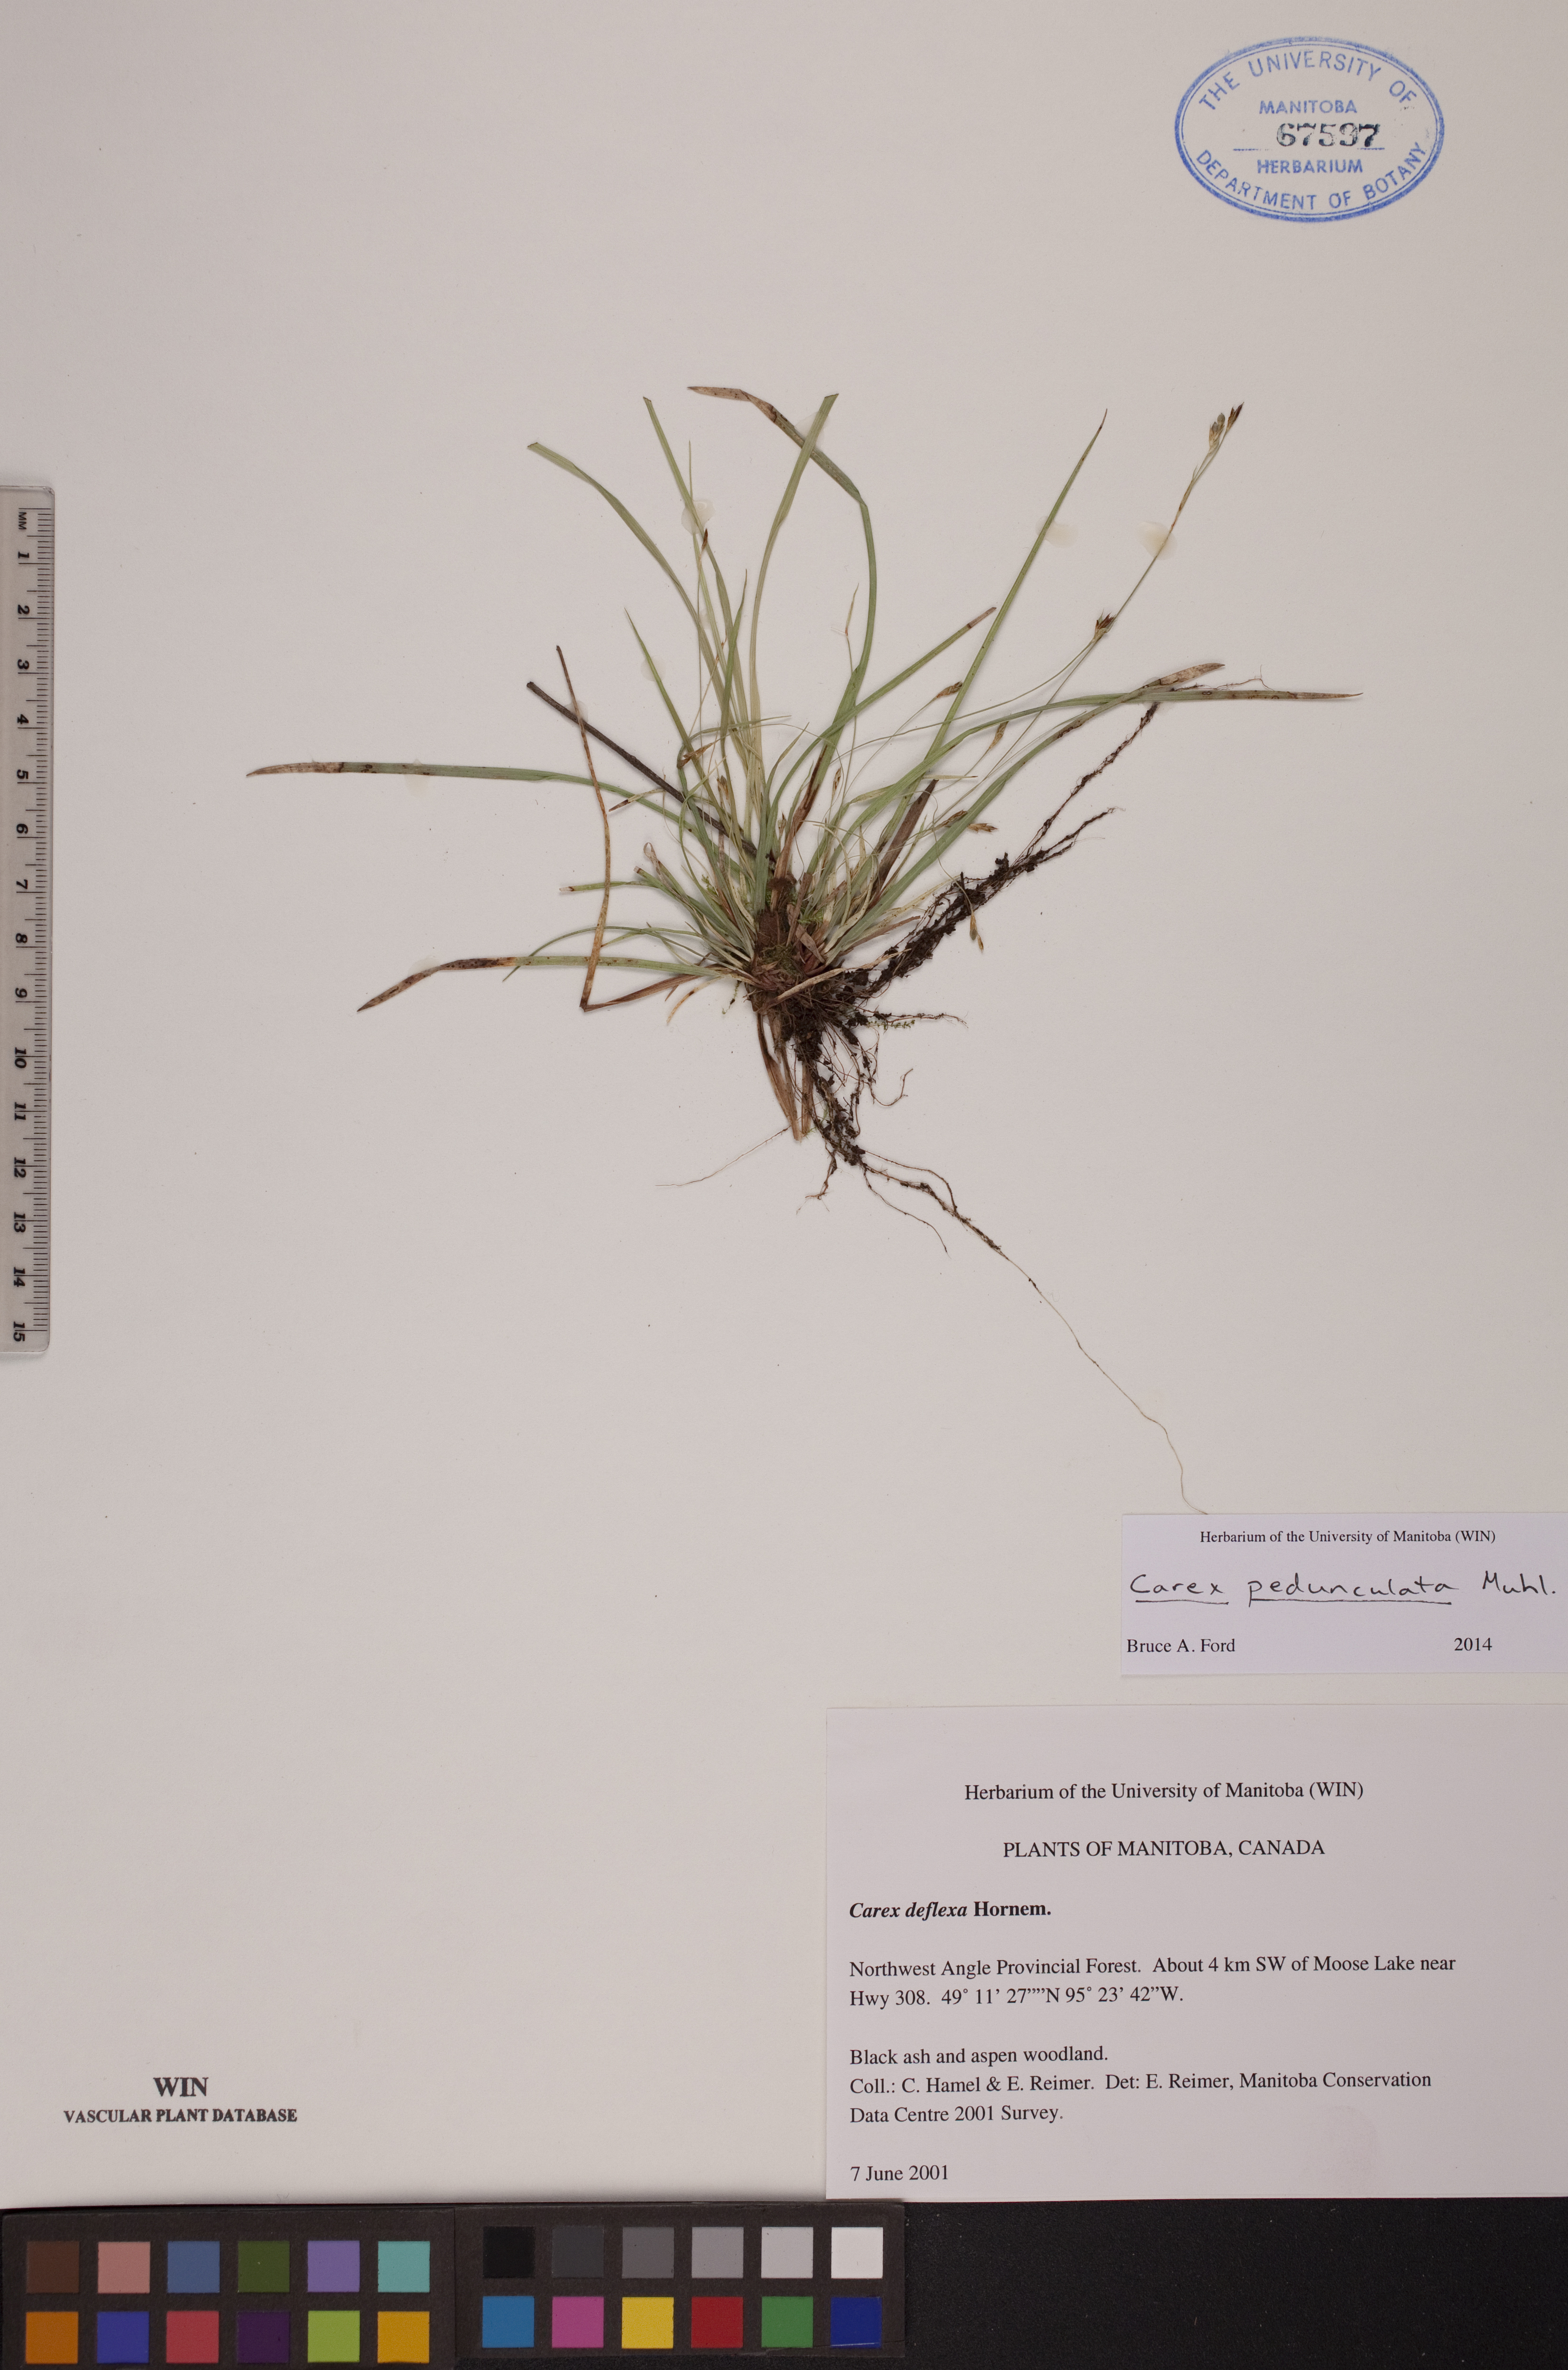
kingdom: Plantae
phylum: Tracheophyta
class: Liliopsida
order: Poales
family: Cyperaceae
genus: Carex
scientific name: Carex pedunculata
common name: Pedunculate sedge
